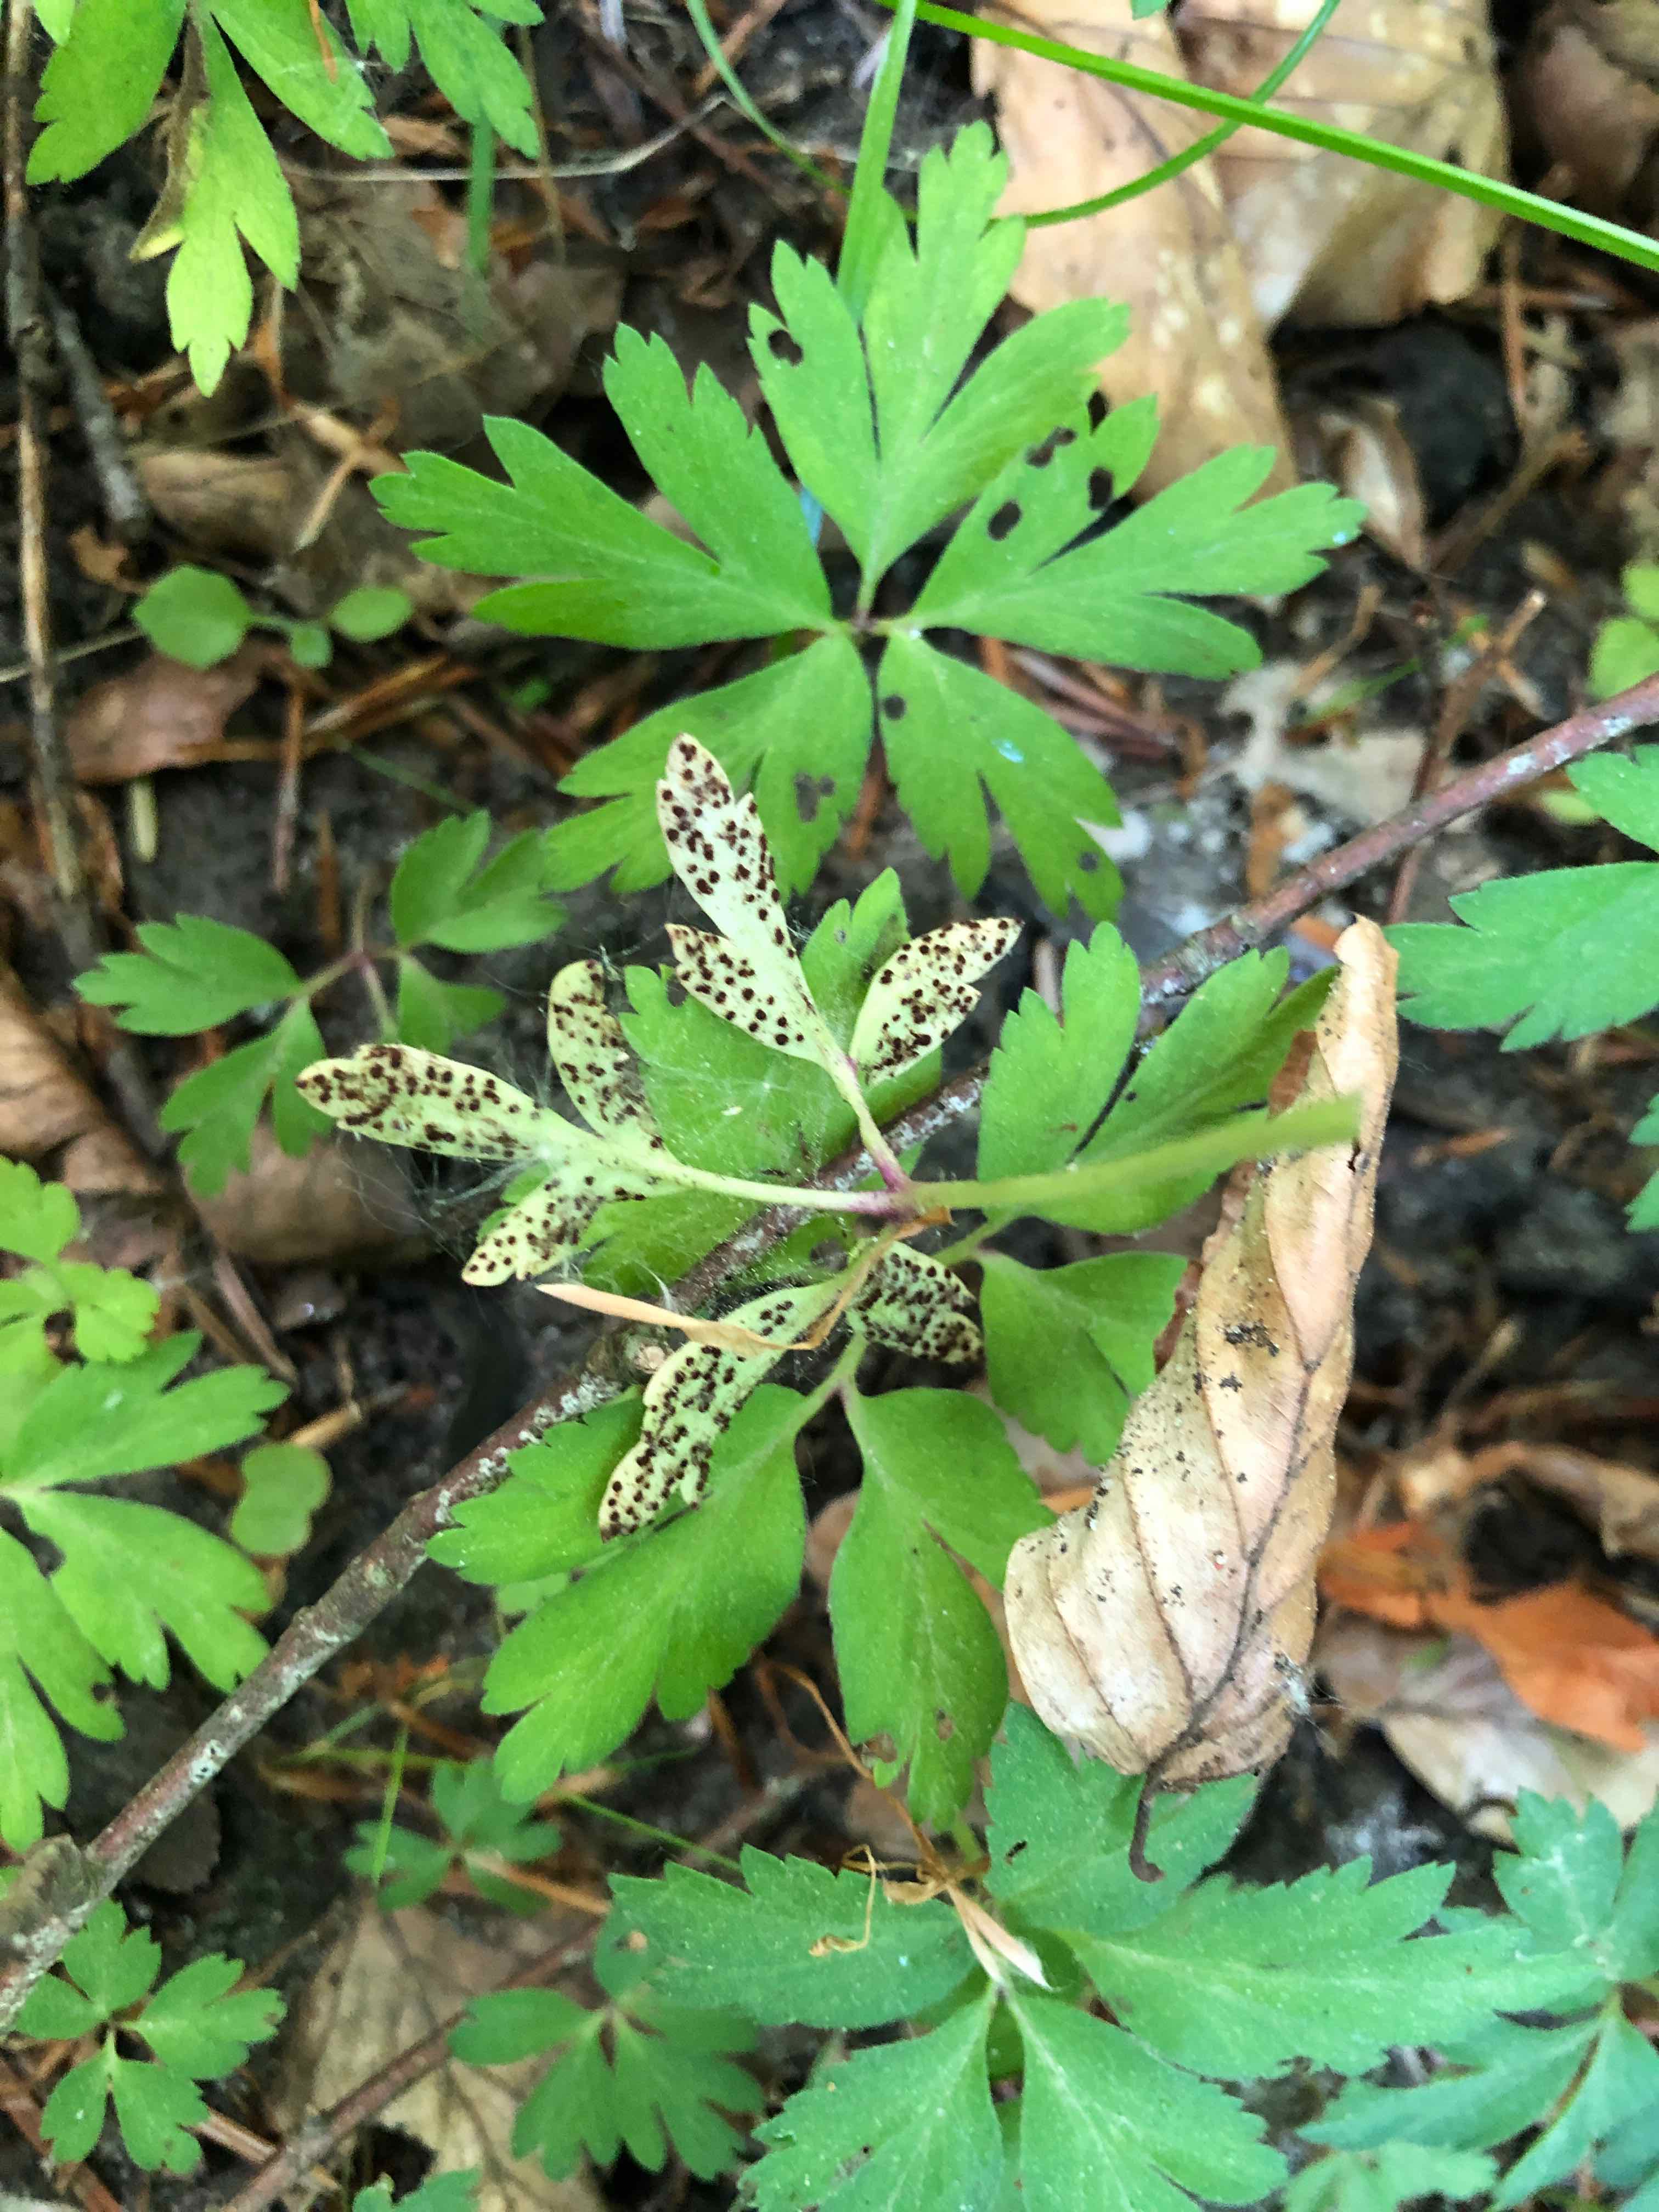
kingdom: Fungi
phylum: Basidiomycota
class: Pucciniomycetes
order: Pucciniales
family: Tranzscheliaceae
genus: Tranzschelia
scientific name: Tranzschelia anemones
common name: anemone-knæksporerust
